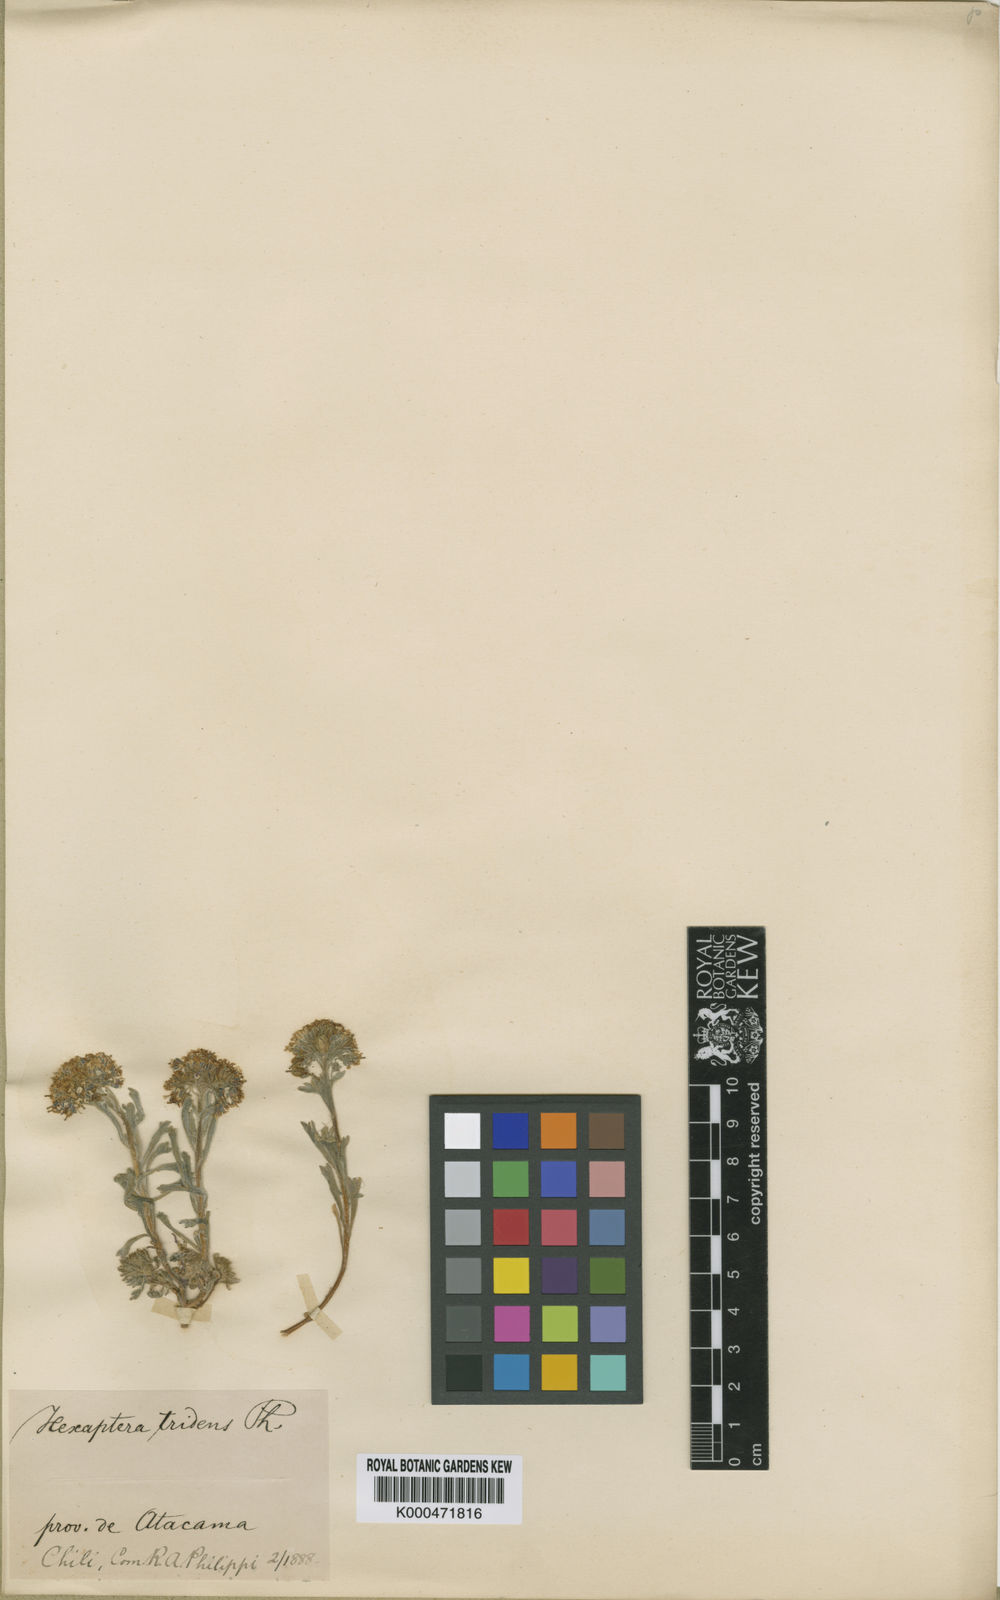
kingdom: Plantae
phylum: Tracheophyta
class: Magnoliopsida
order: Brassicales
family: Brassicaceae
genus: Menonvillea
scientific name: Menonvillea cuneata
